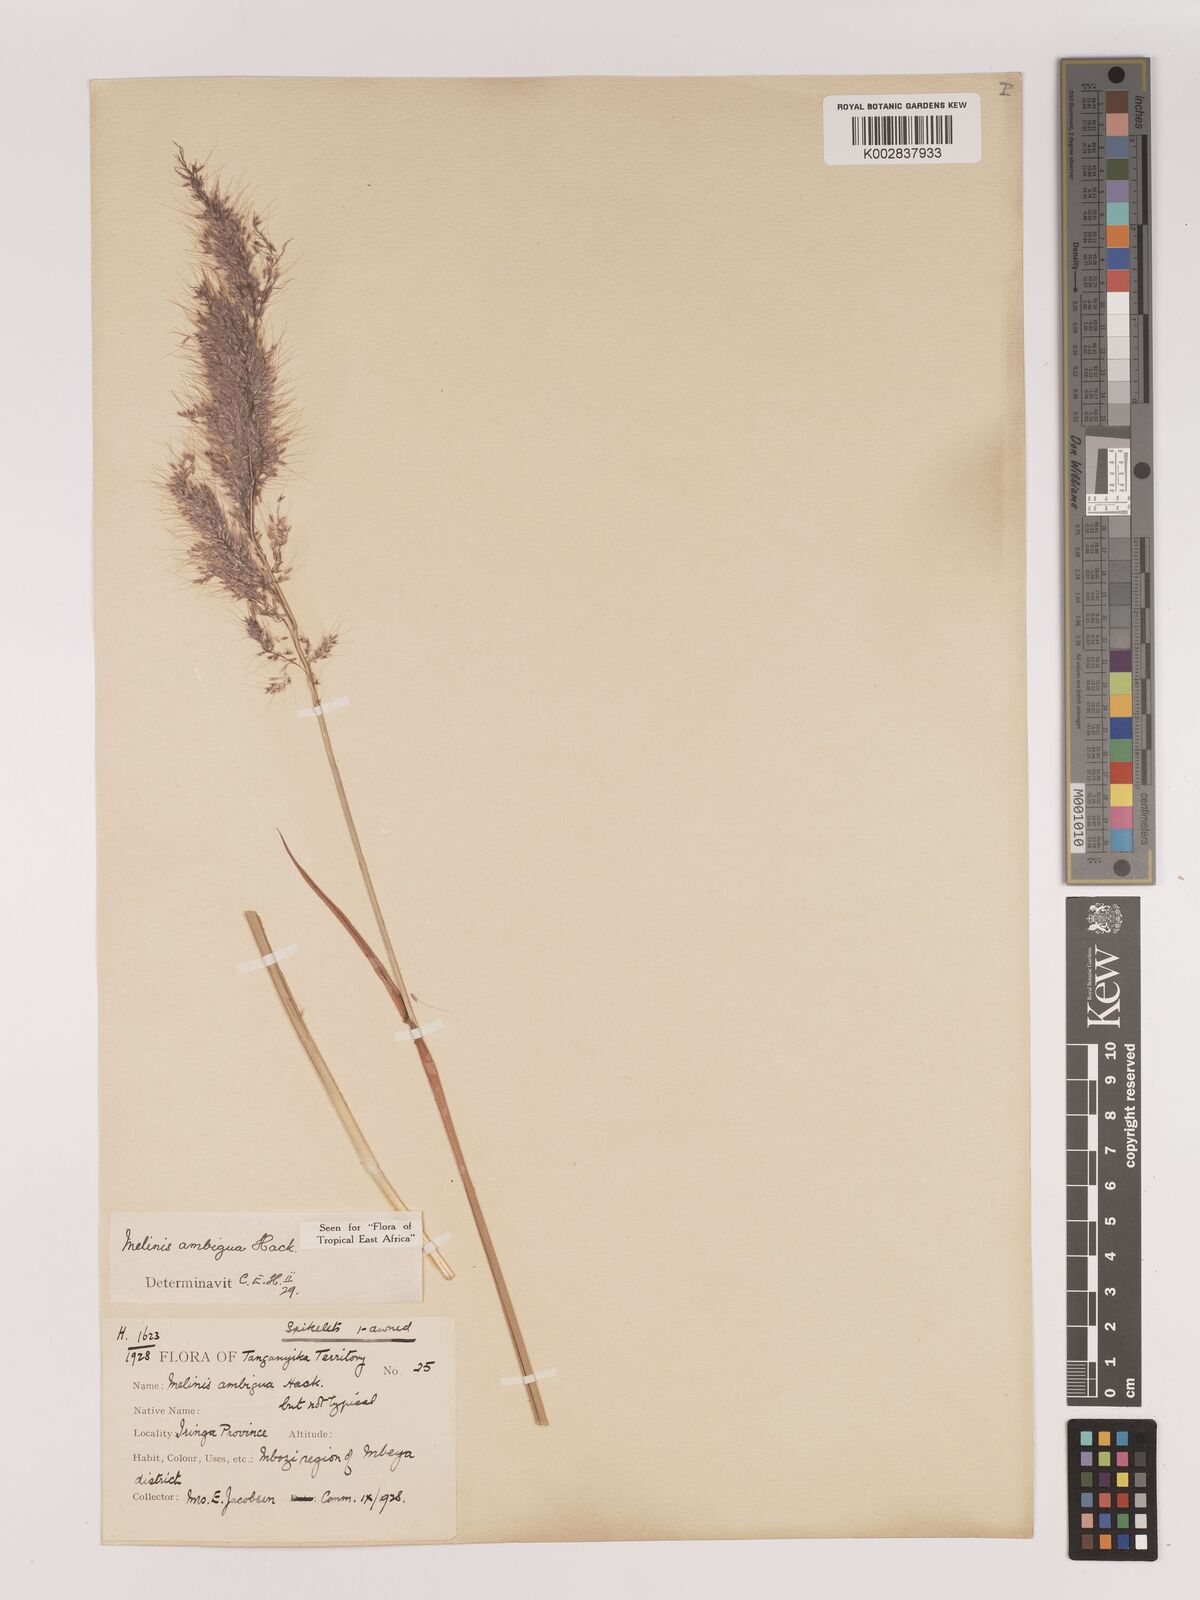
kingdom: Plantae
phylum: Tracheophyta
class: Liliopsida
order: Poales
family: Poaceae
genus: Melinis
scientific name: Melinis ambigua
